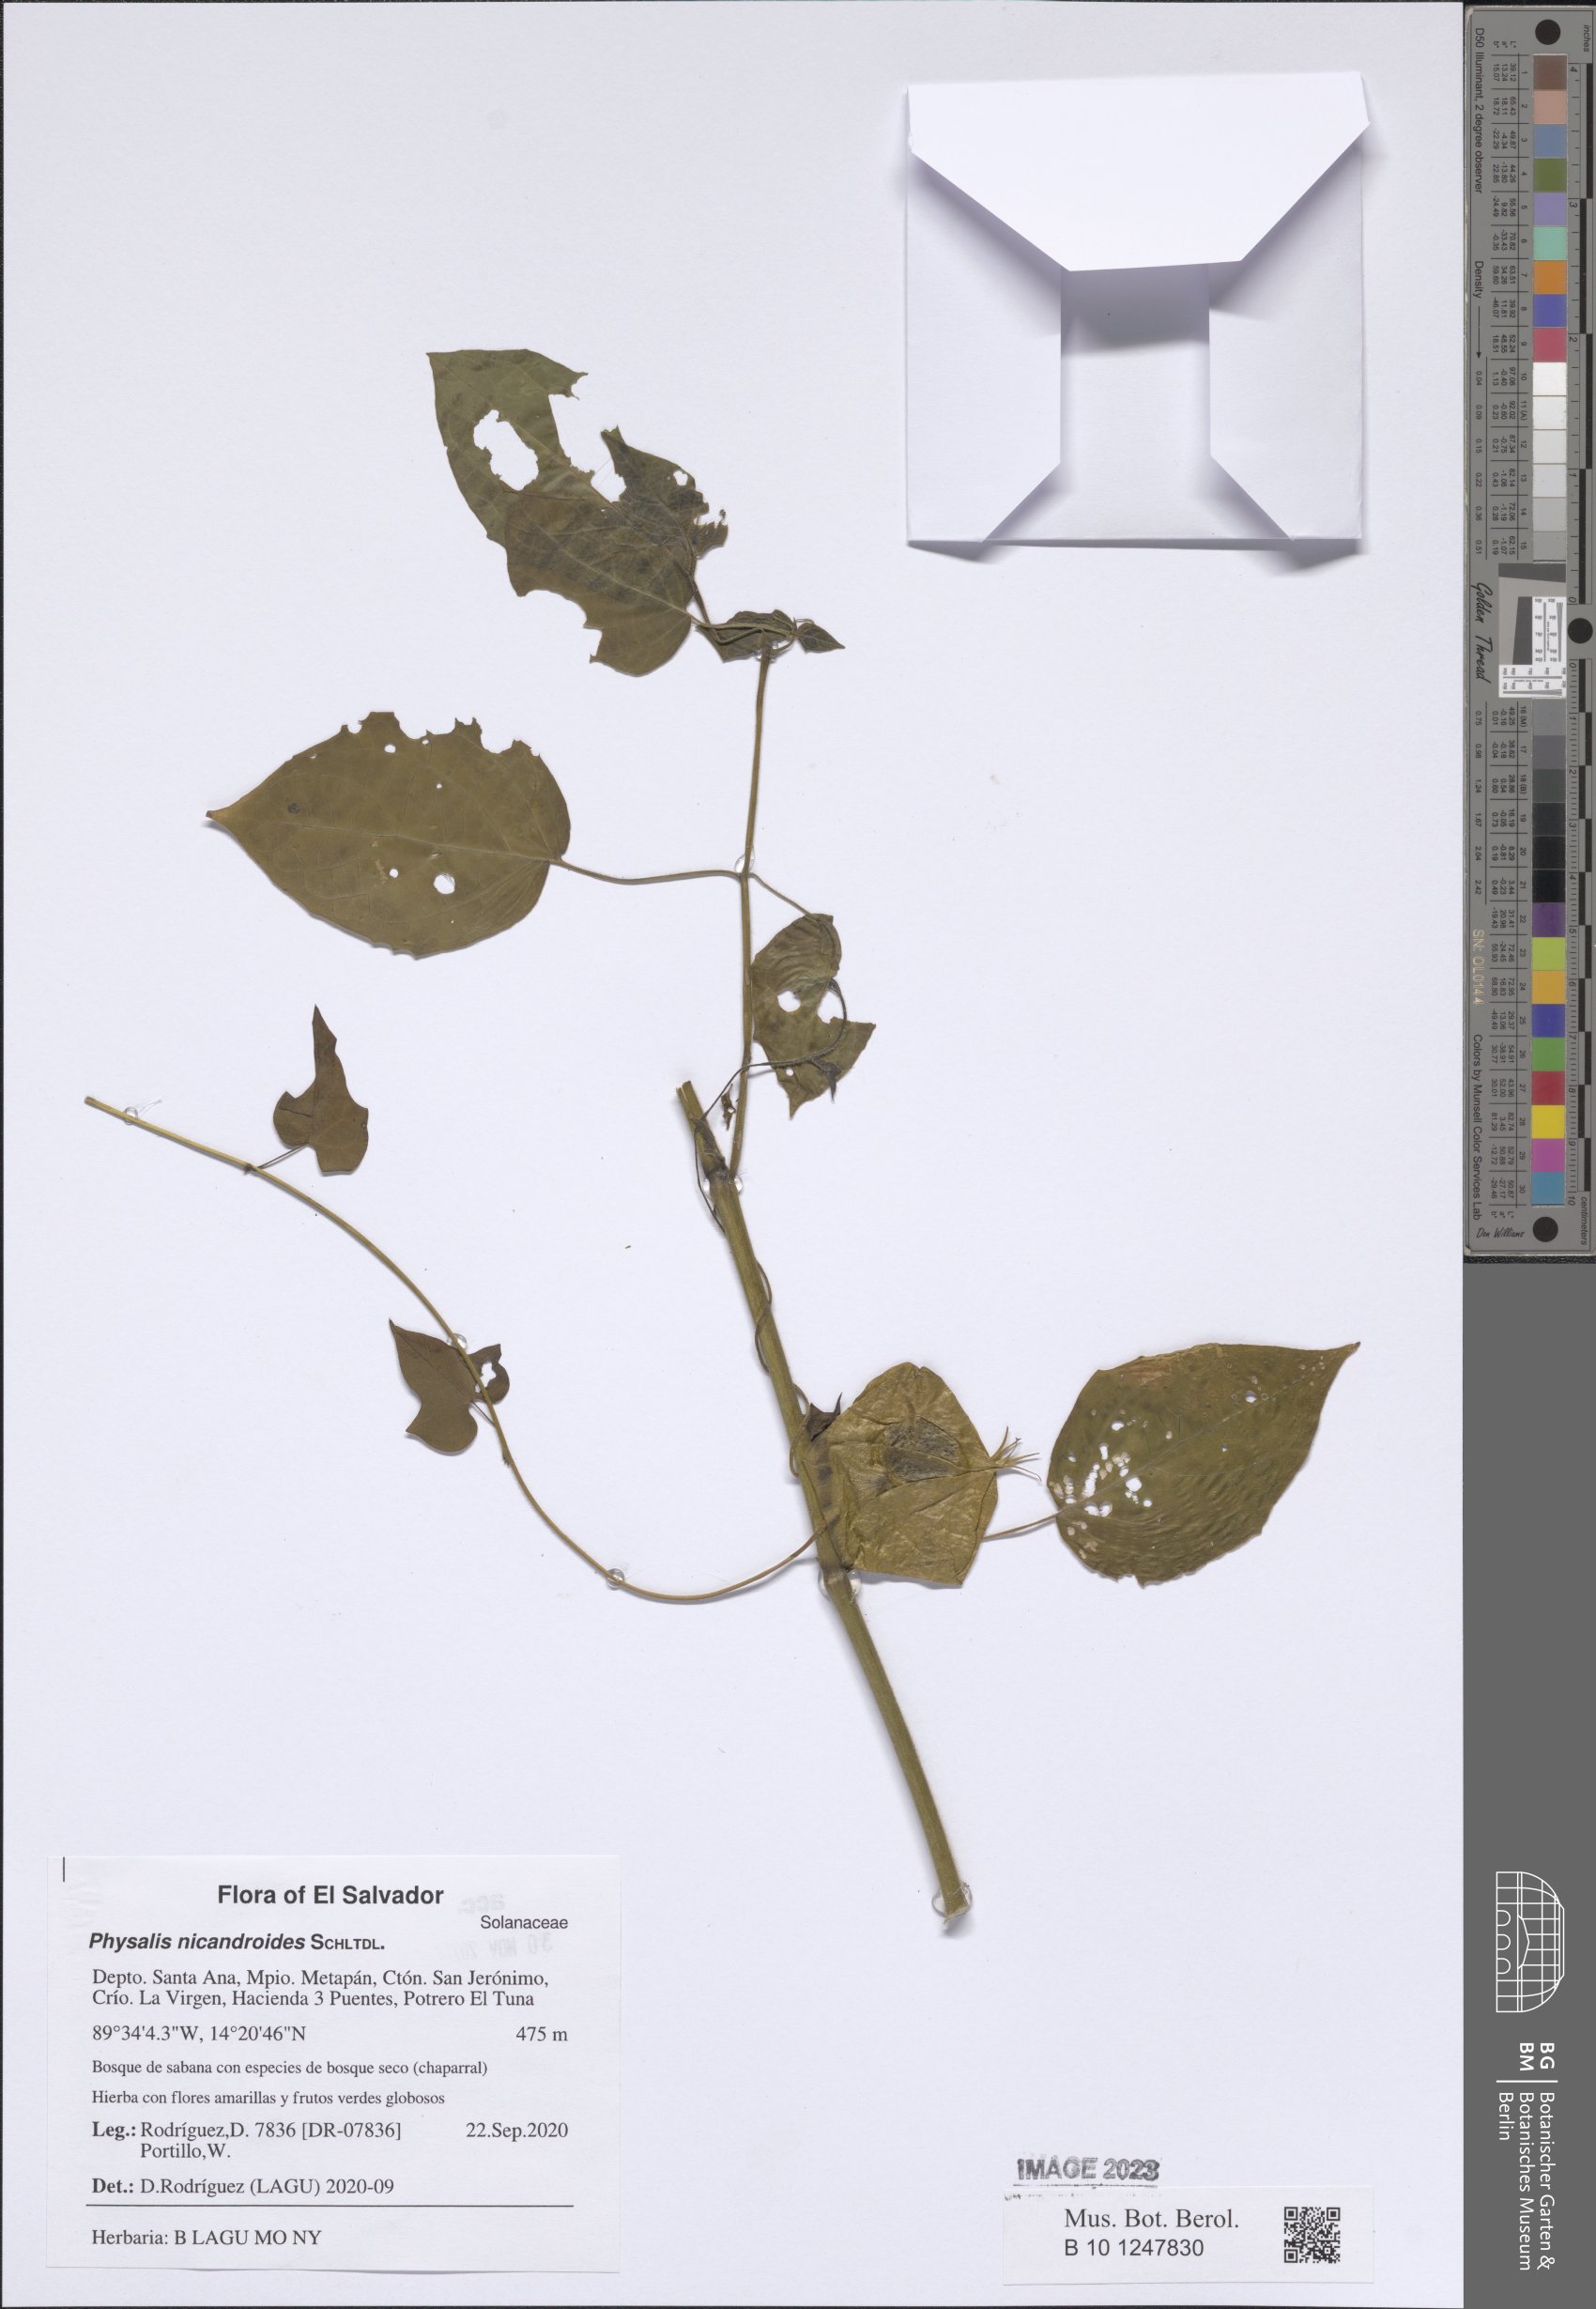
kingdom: Plantae
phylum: Tracheophyta
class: Magnoliopsida
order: Solanales
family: Solanaceae
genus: Physalis
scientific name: Physalis nicandroides
